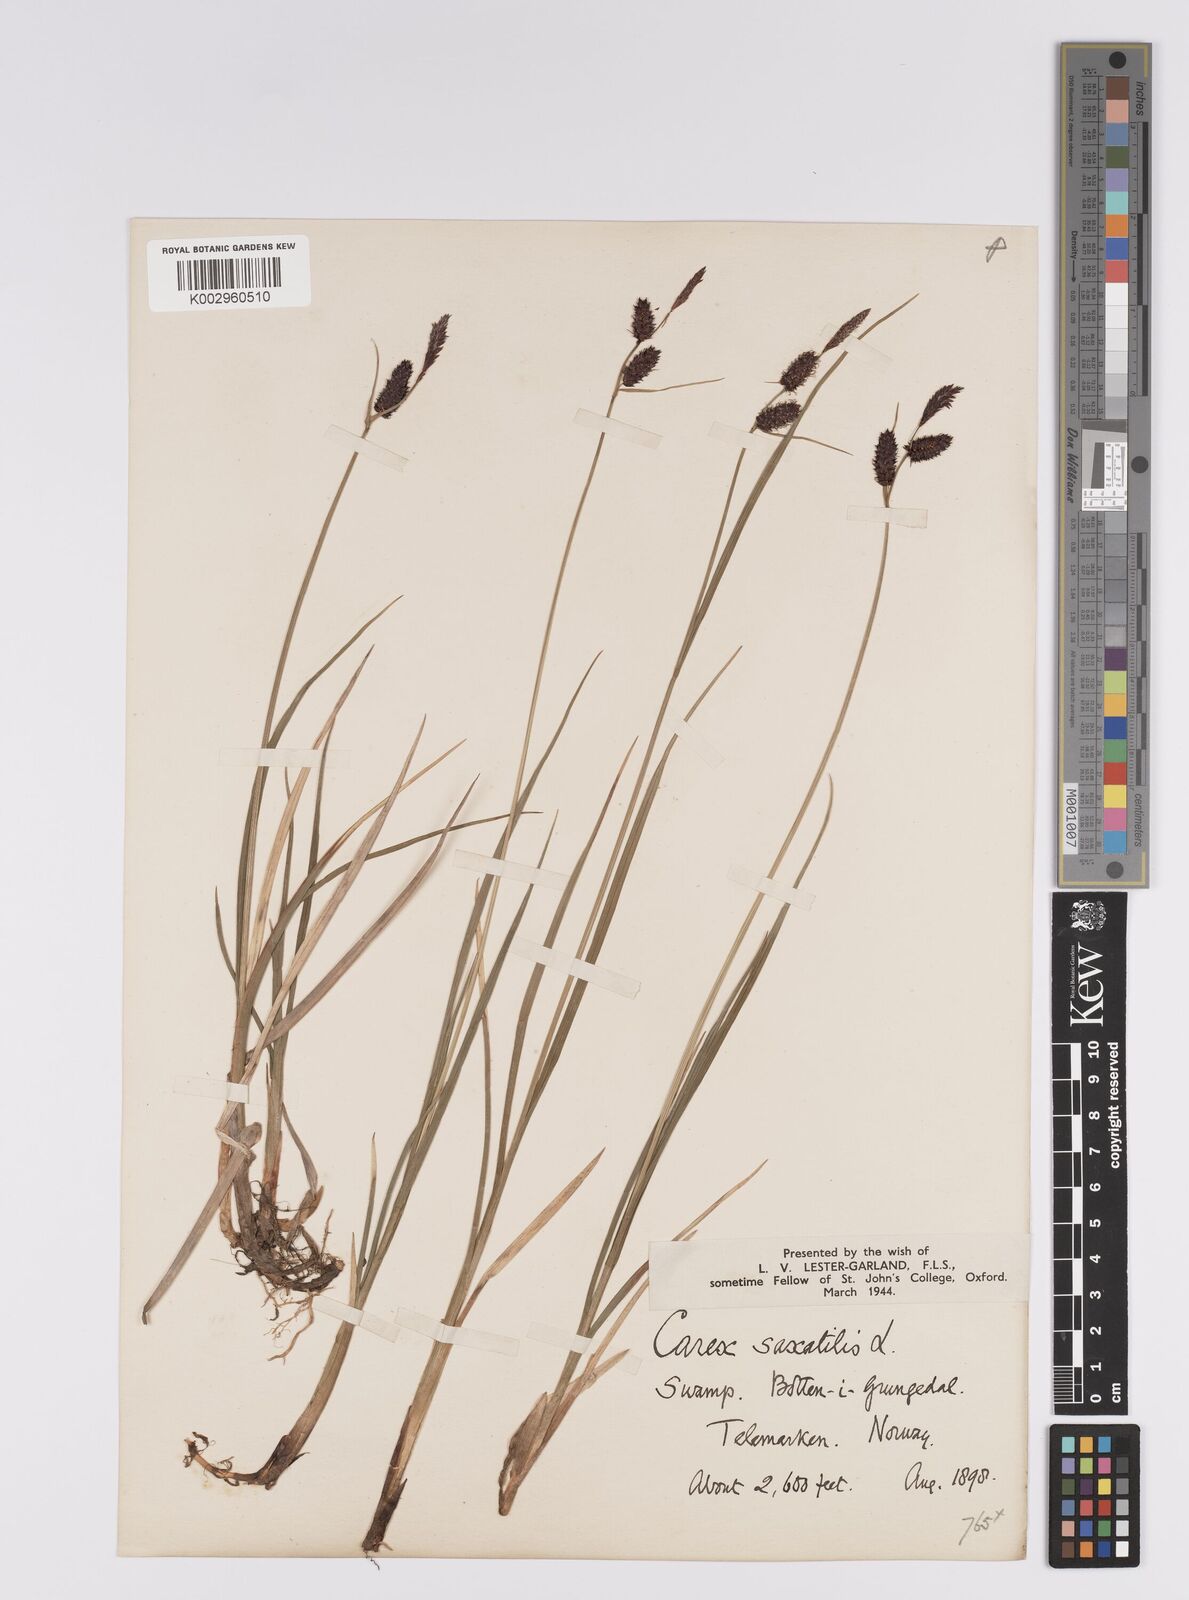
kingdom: Plantae
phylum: Tracheophyta
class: Liliopsida
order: Poales
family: Cyperaceae
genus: Carex
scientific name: Carex saxatilis
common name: Russet sedge
